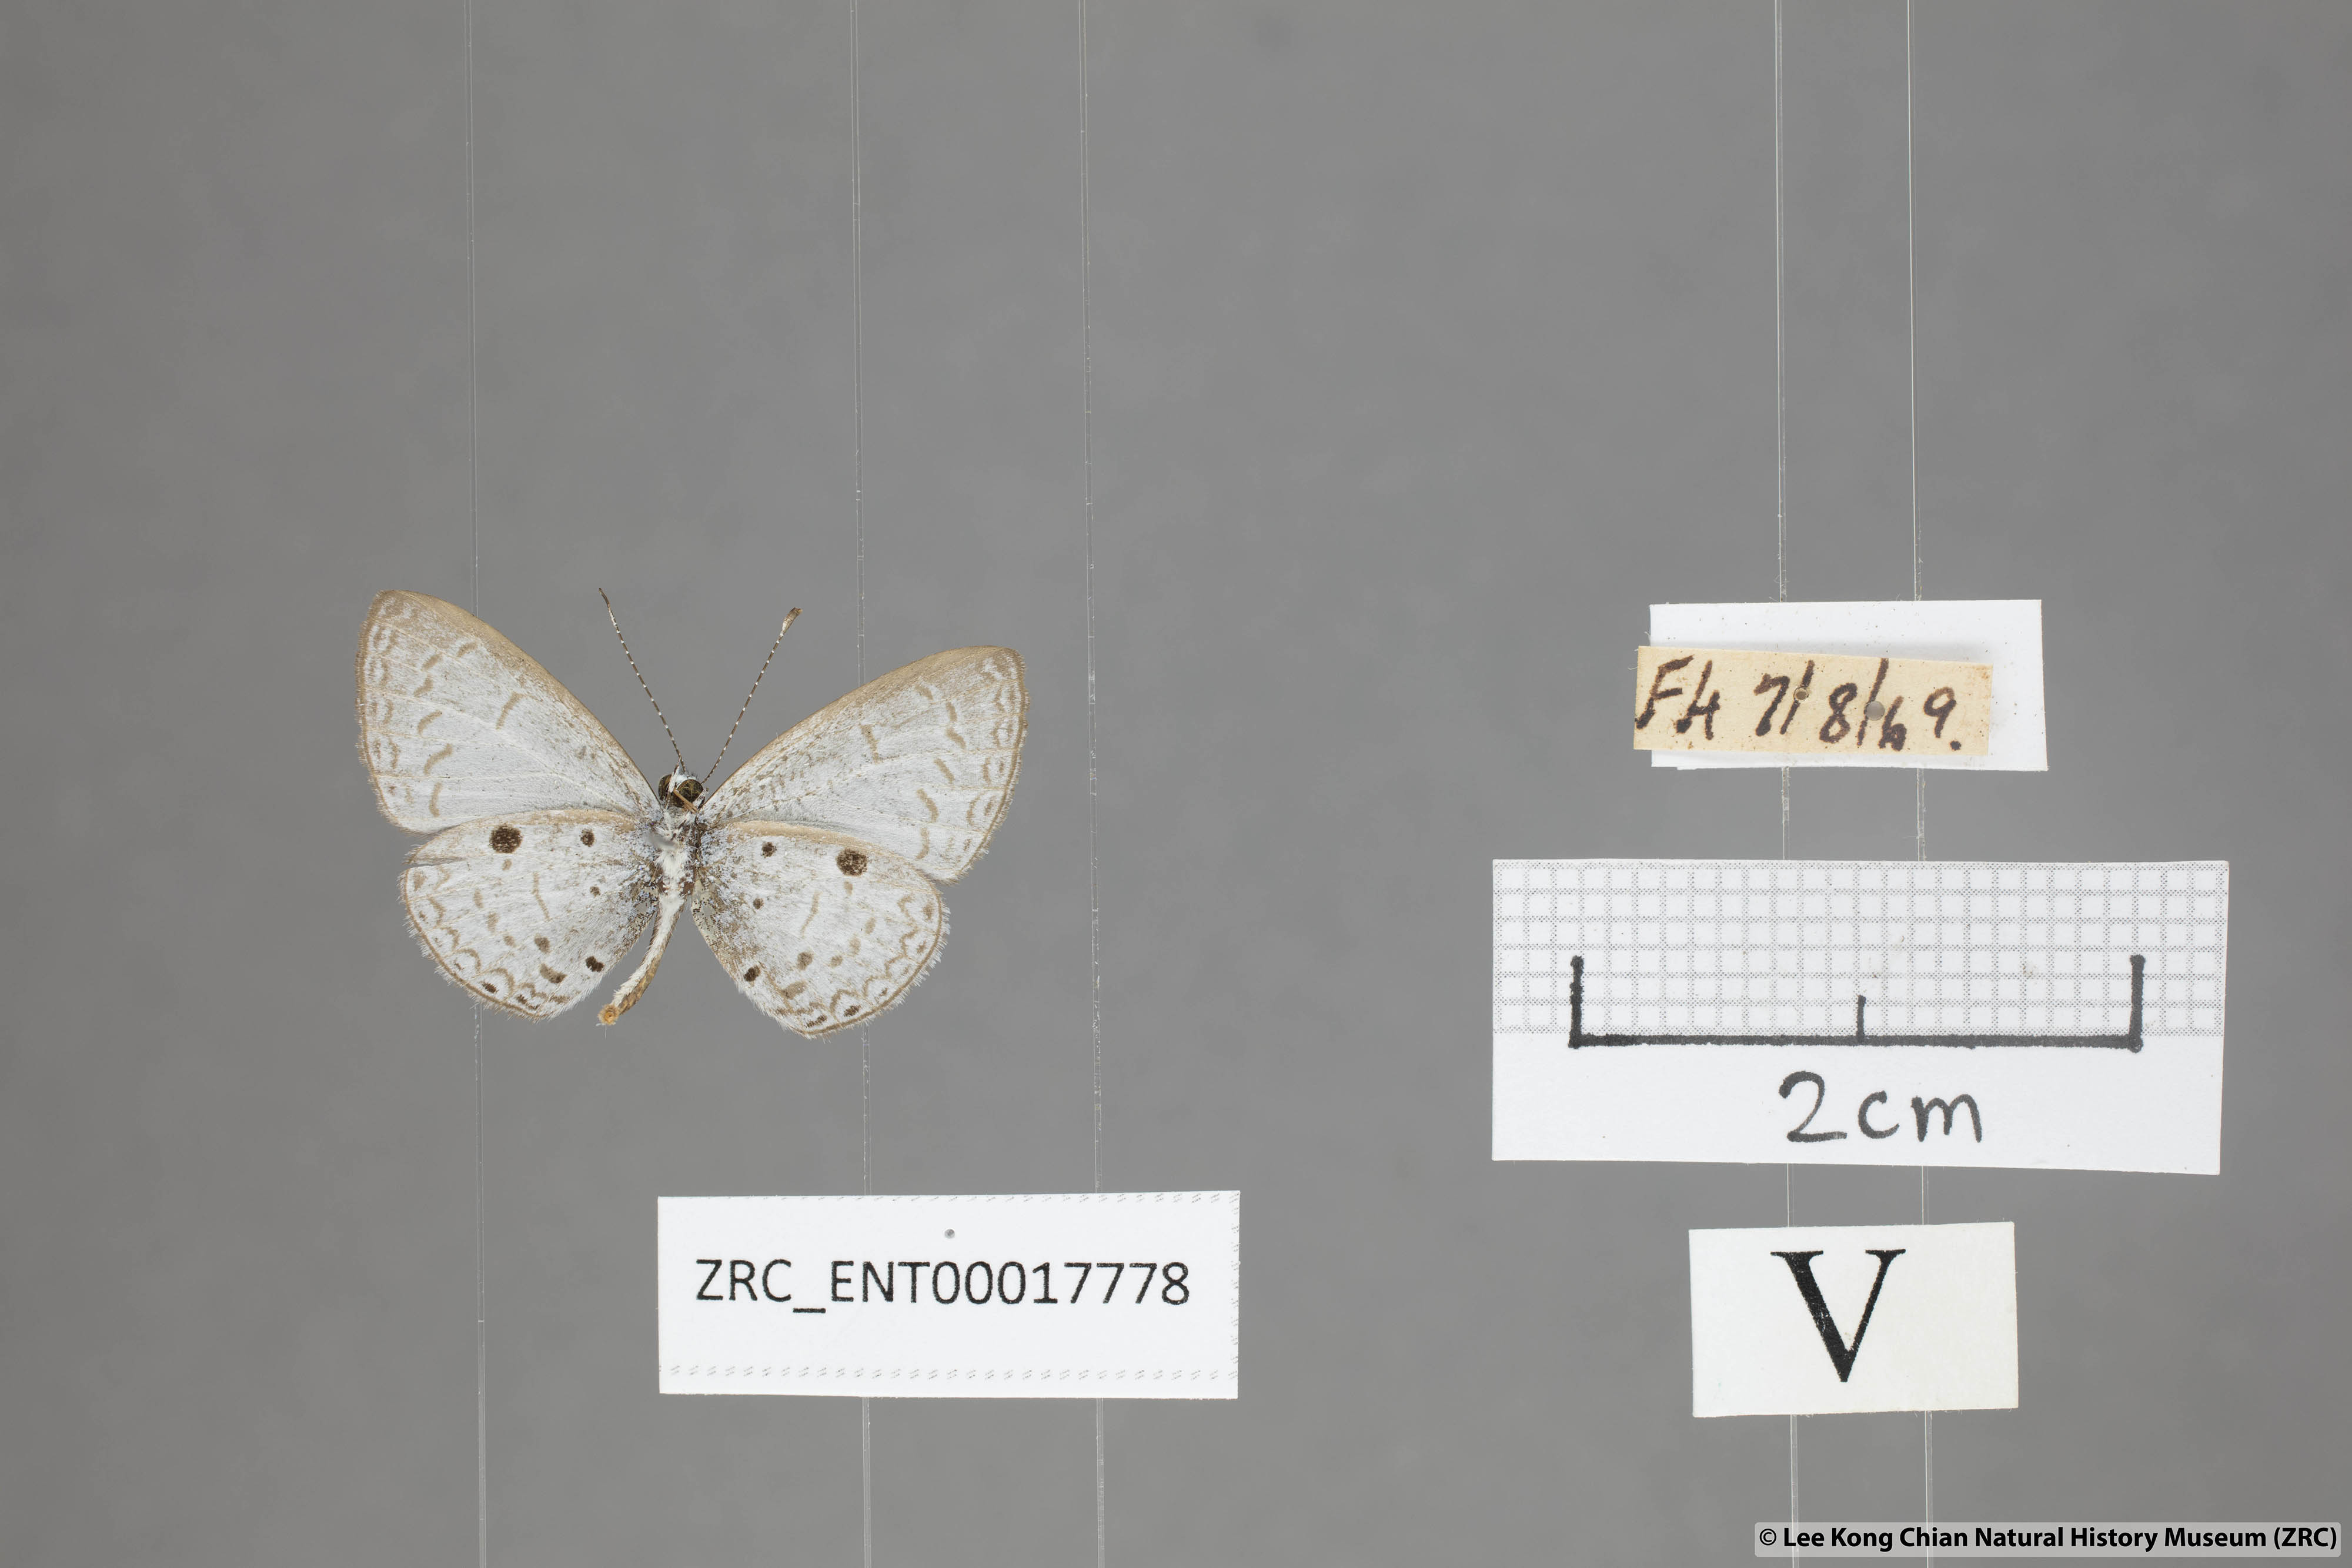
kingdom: Animalia
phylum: Arthropoda
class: Insecta
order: Lepidoptera
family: Lycaenidae
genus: Callenya
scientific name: Callenya lenya
